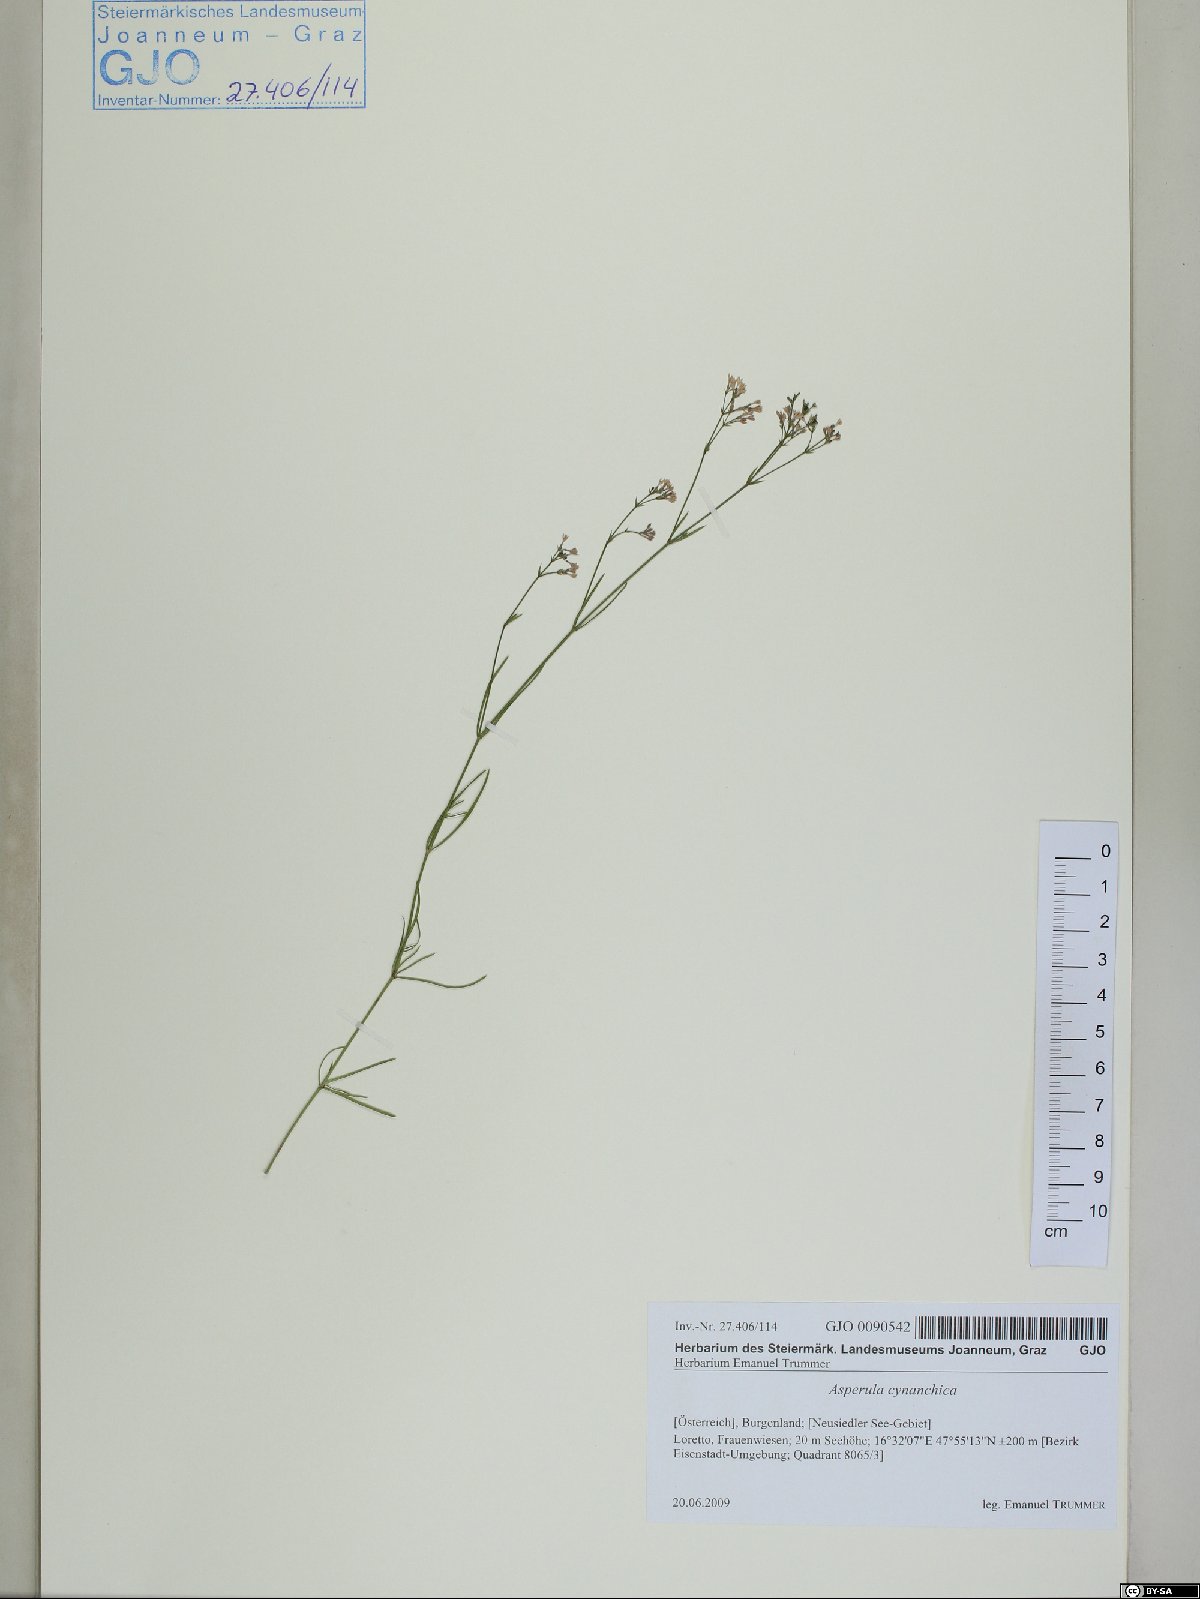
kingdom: Plantae
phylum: Tracheophyta
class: Magnoliopsida
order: Gentianales
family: Rubiaceae
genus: Cynanchica
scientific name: Cynanchica pyrenaica
